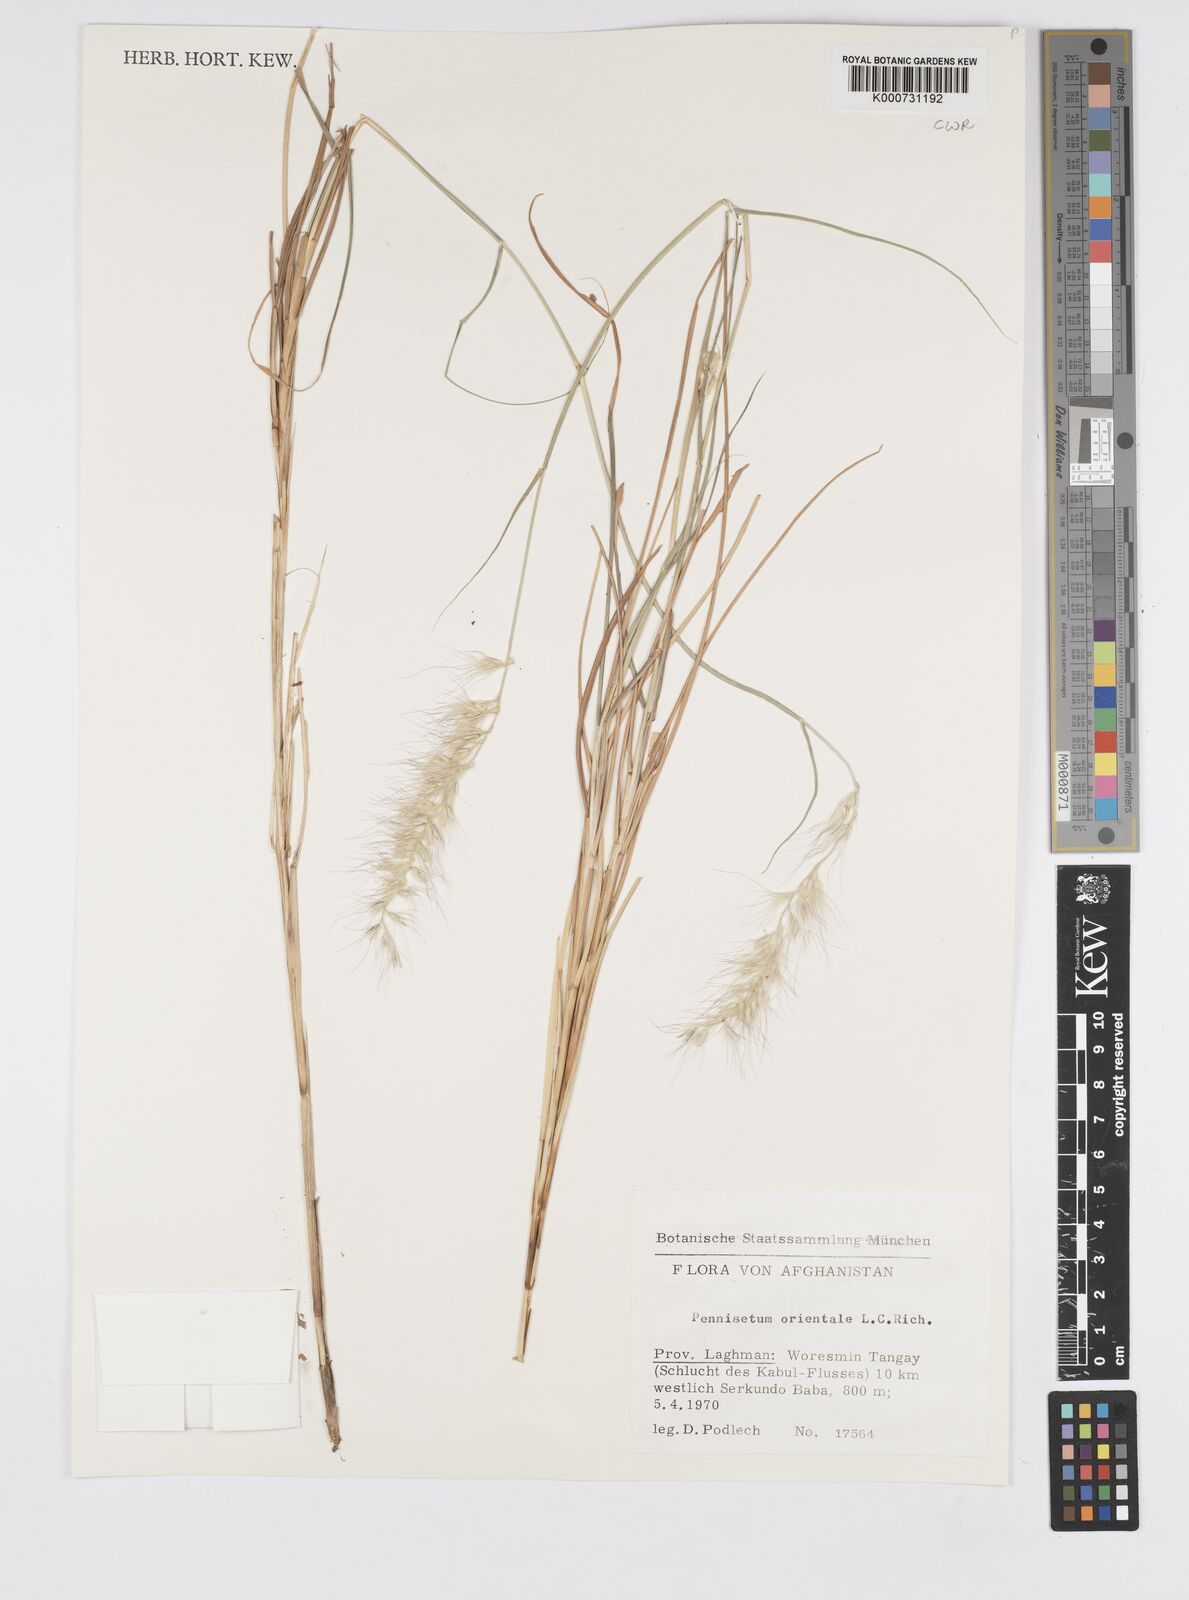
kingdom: Plantae
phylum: Tracheophyta
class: Liliopsida
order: Poales
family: Poaceae
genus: Cenchrus
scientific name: Cenchrus orientalis
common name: Oriental fountain grass
